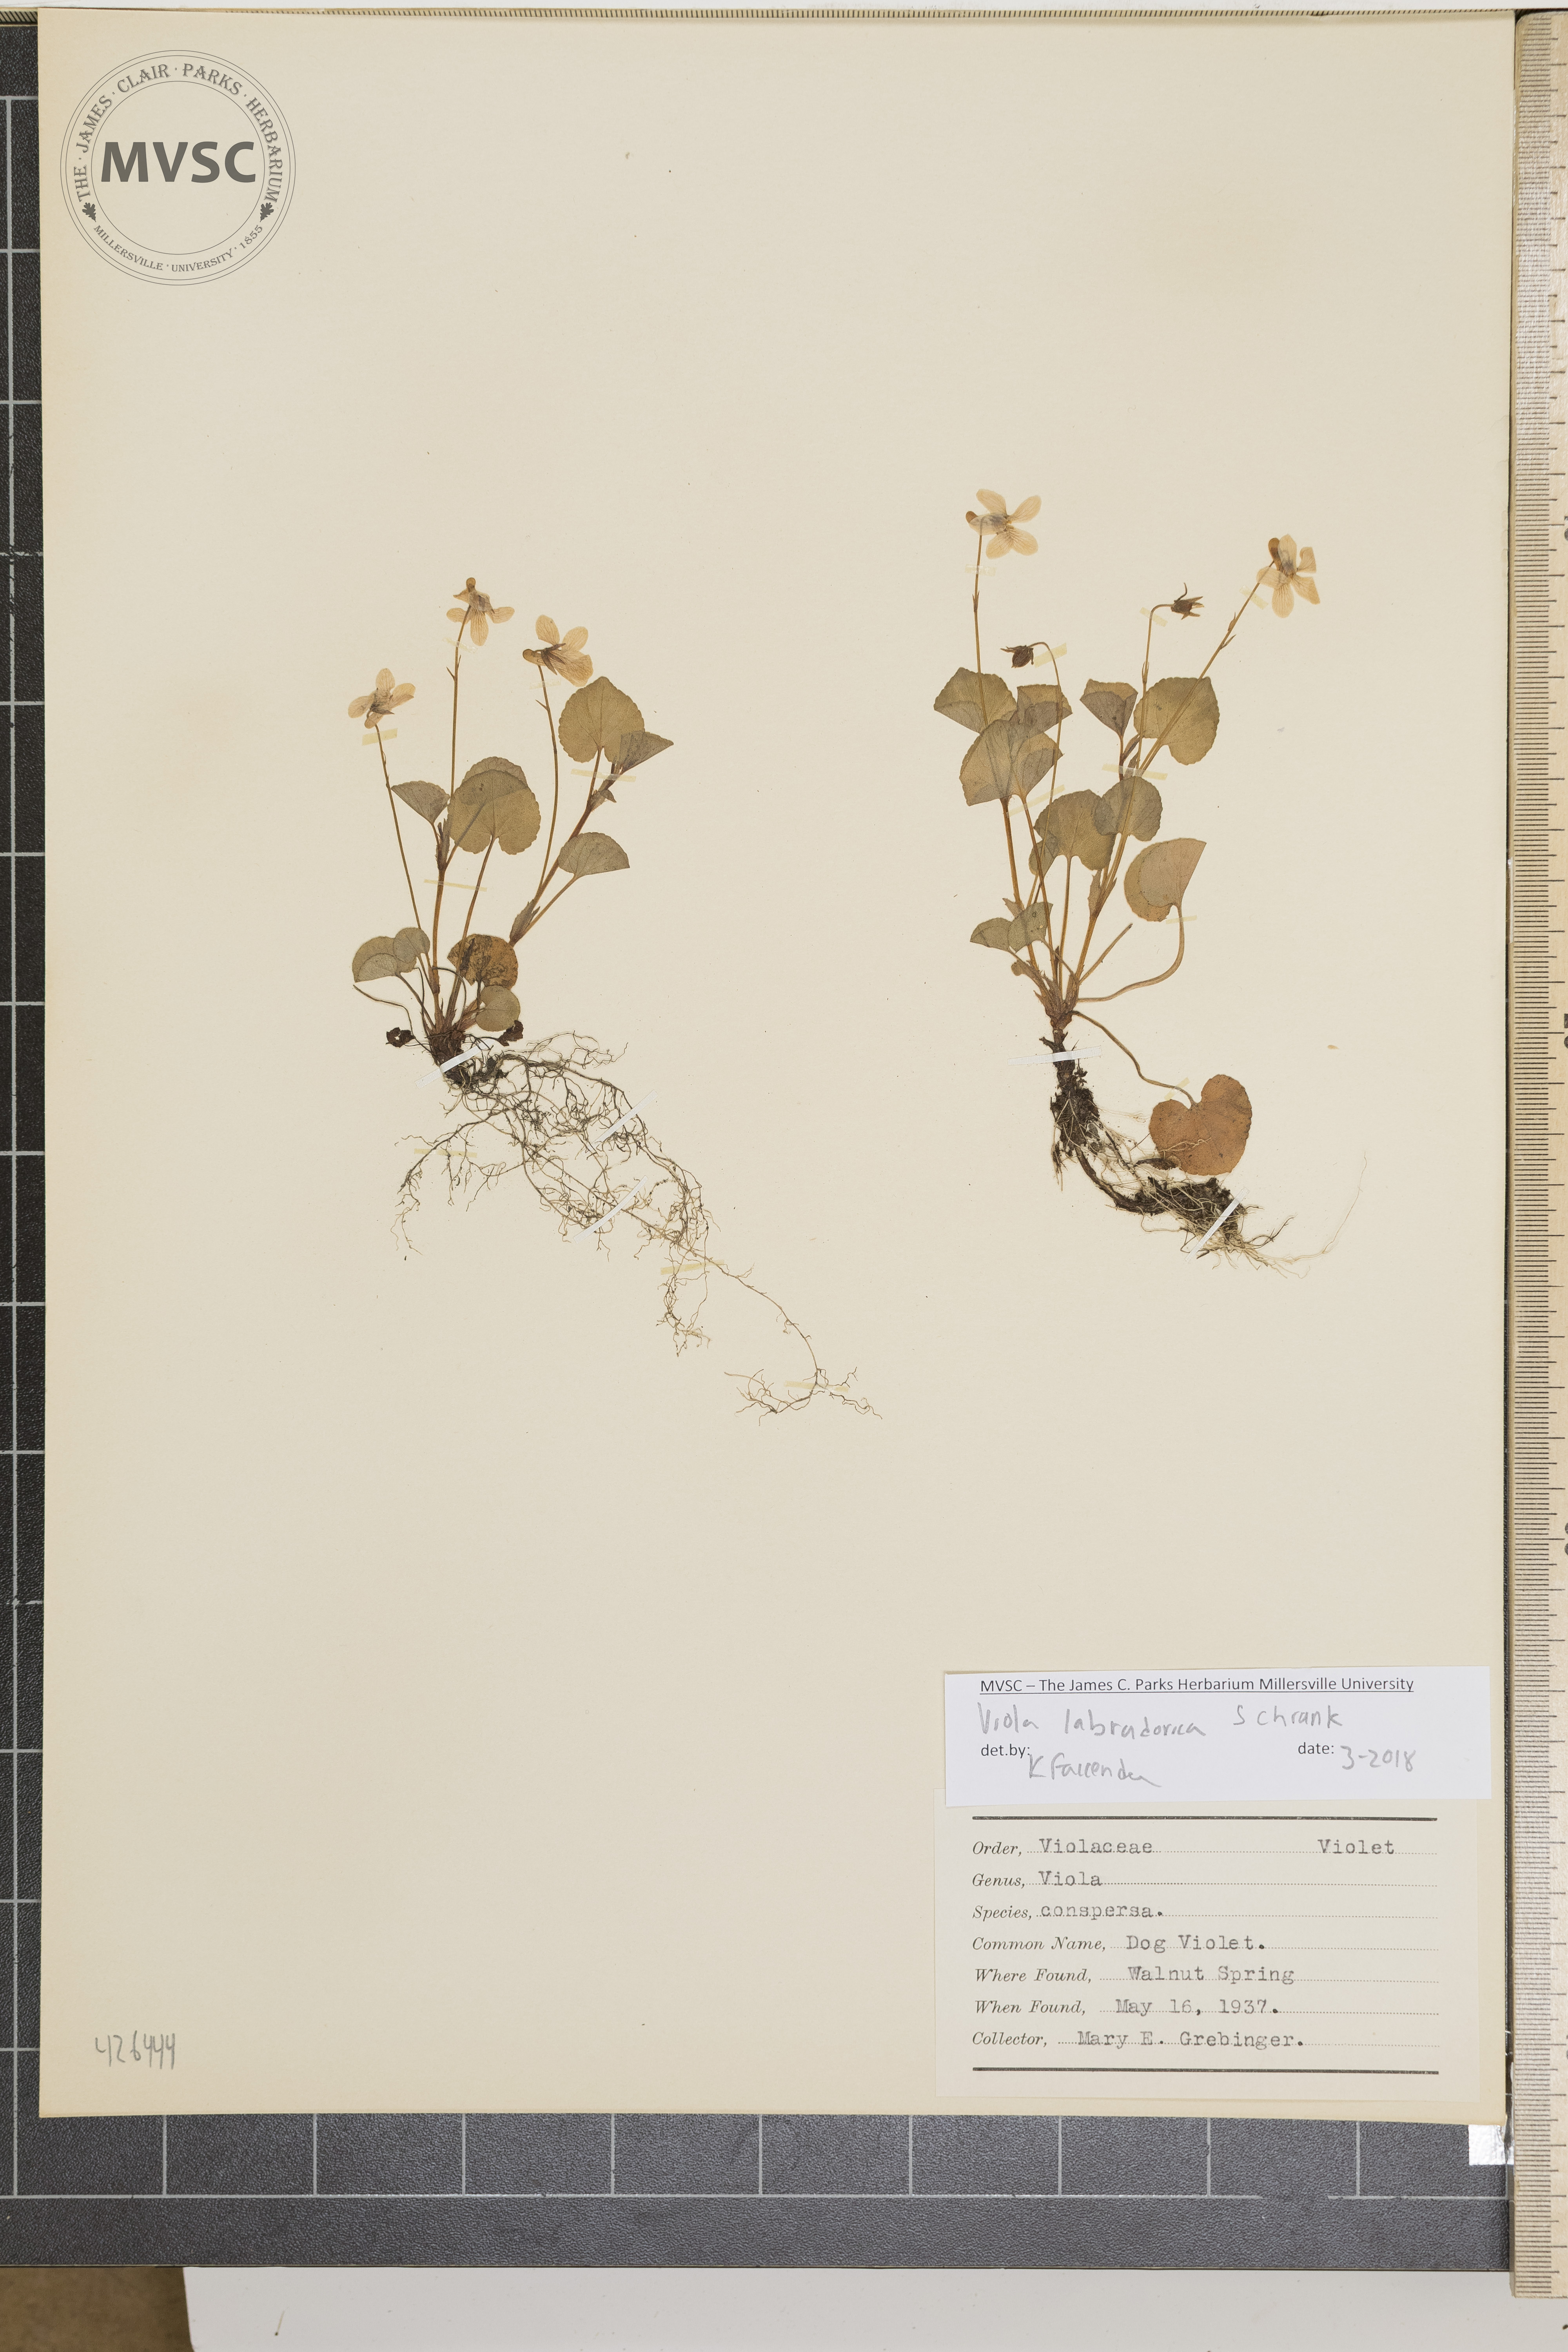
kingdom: Plantae
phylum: Tracheophyta
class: Magnoliopsida
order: Malpighiales
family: Violaceae
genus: Viola
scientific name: Viola labradorica
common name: Dog violet
